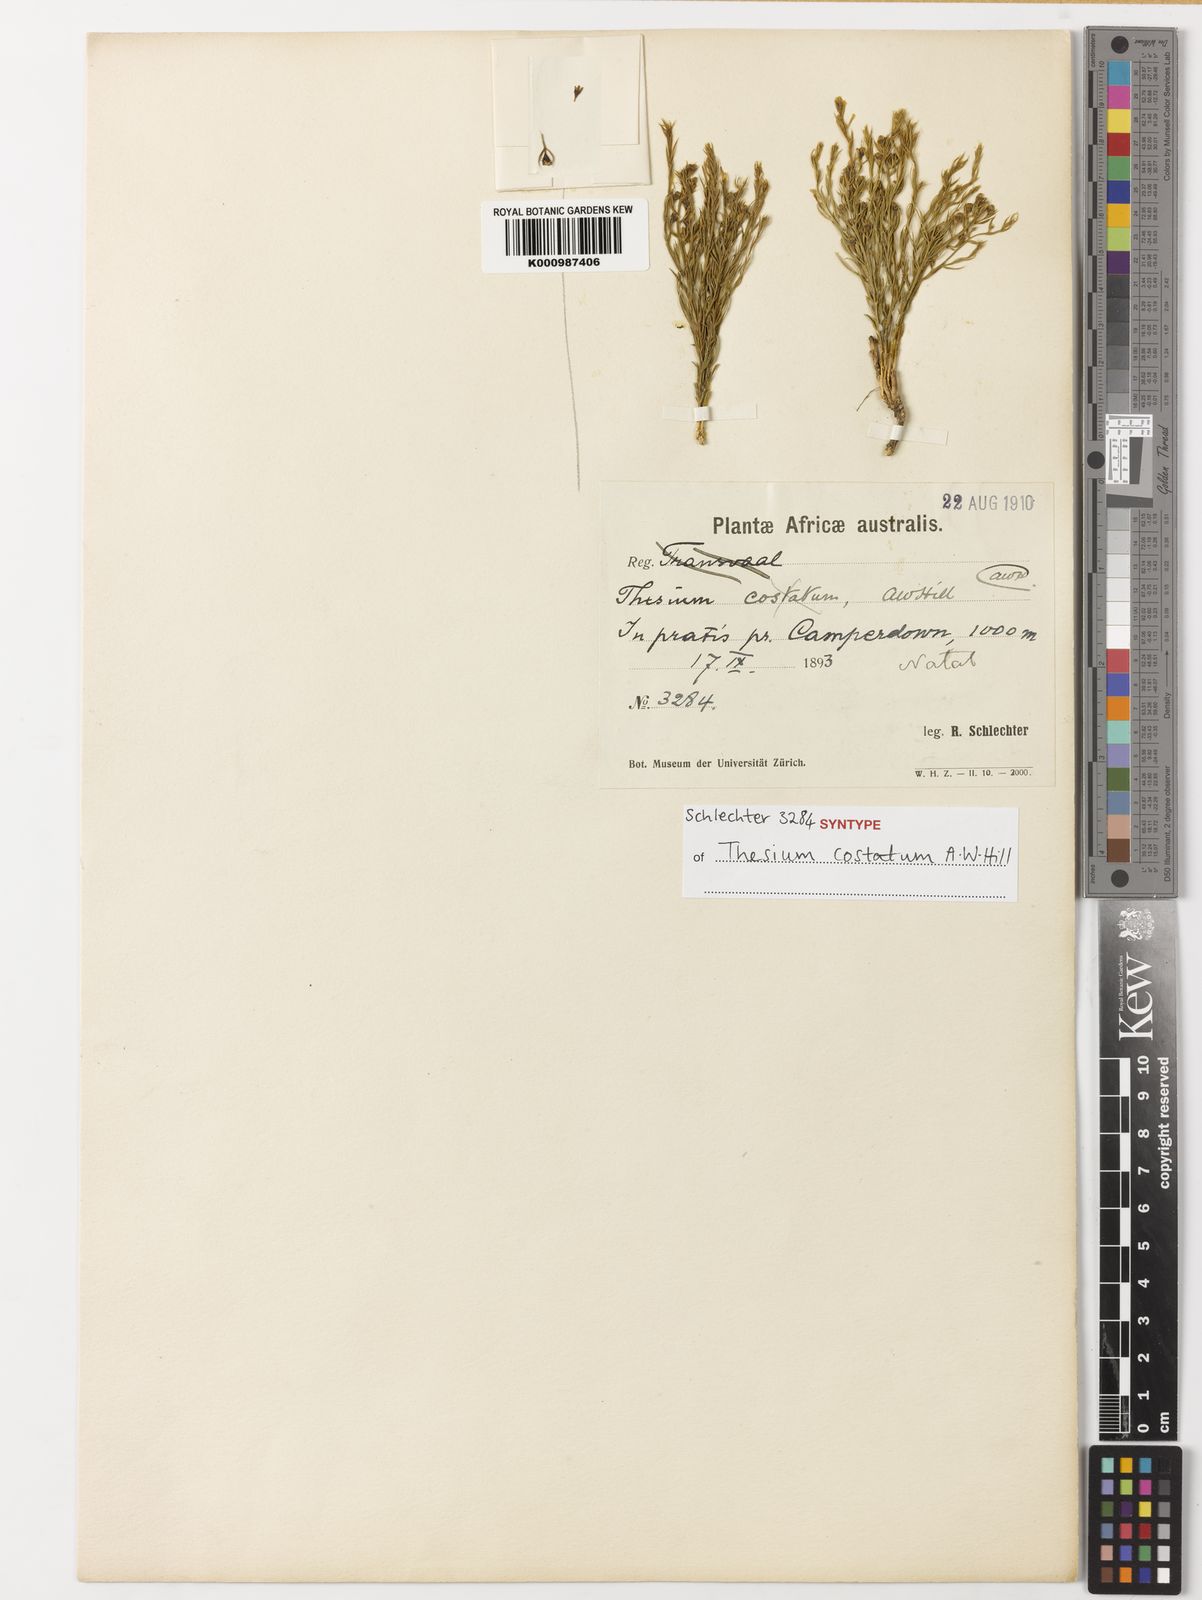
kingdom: Plantae
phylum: Tracheophyta
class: Magnoliopsida
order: Santalales
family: Thesiaceae
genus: Thesium
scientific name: Thesium costatum
